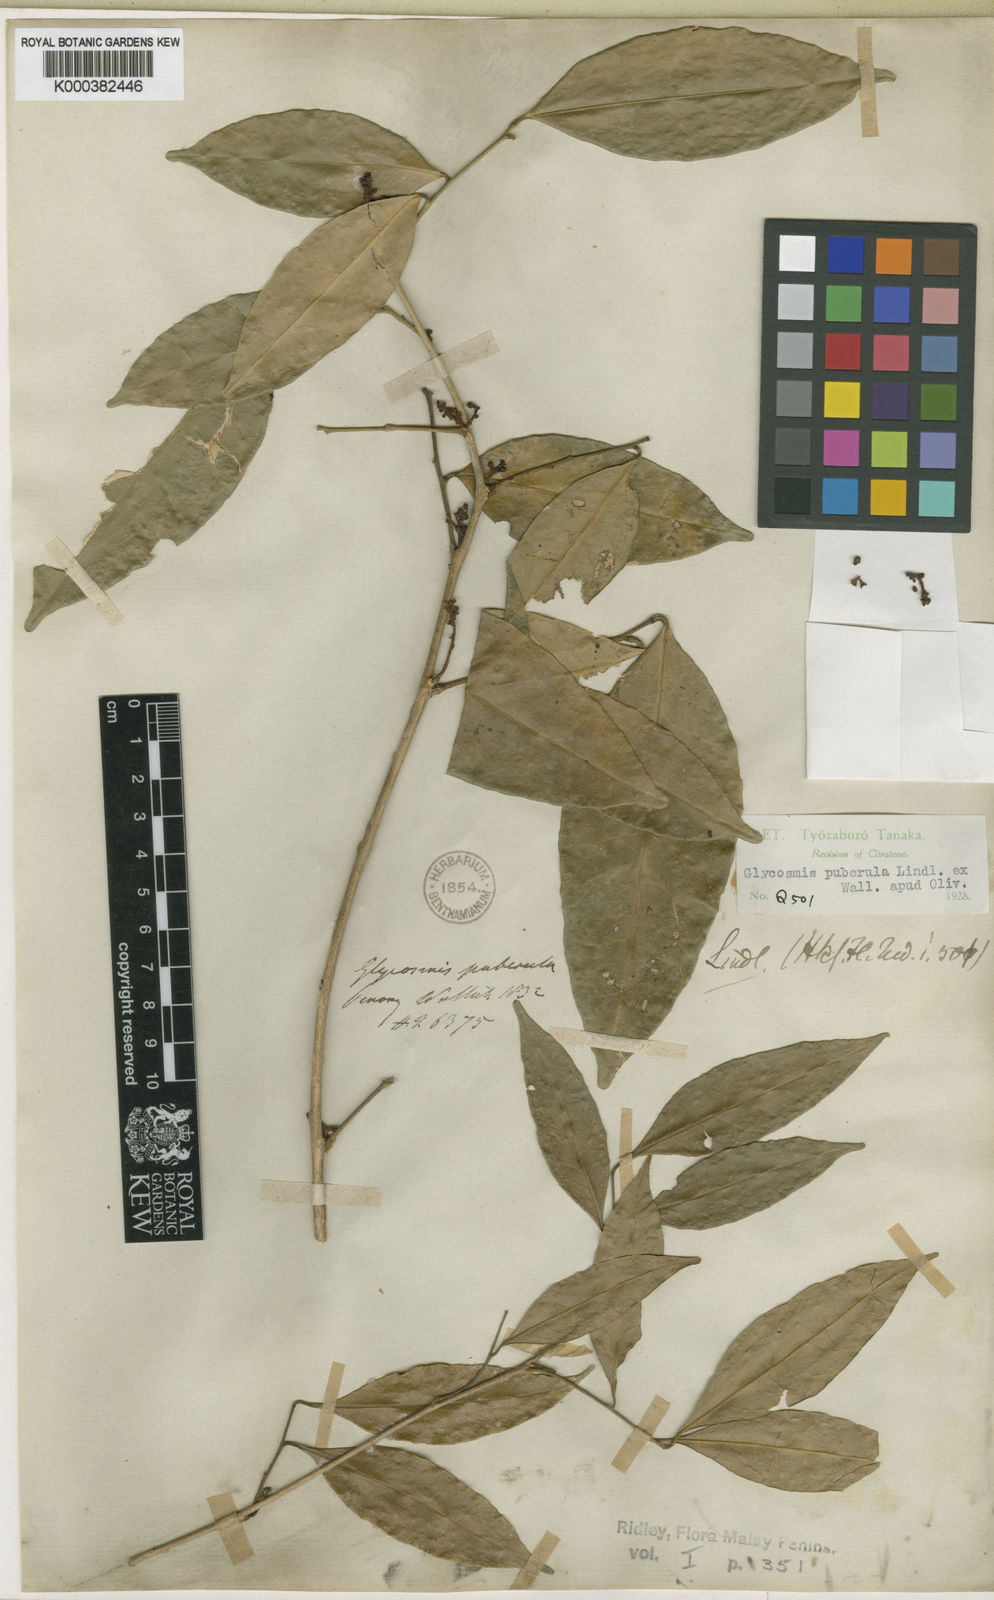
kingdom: Plantae
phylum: Tracheophyta
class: Magnoliopsida
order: Sapindales
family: Rutaceae
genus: Glycosmis
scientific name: Glycosmis
